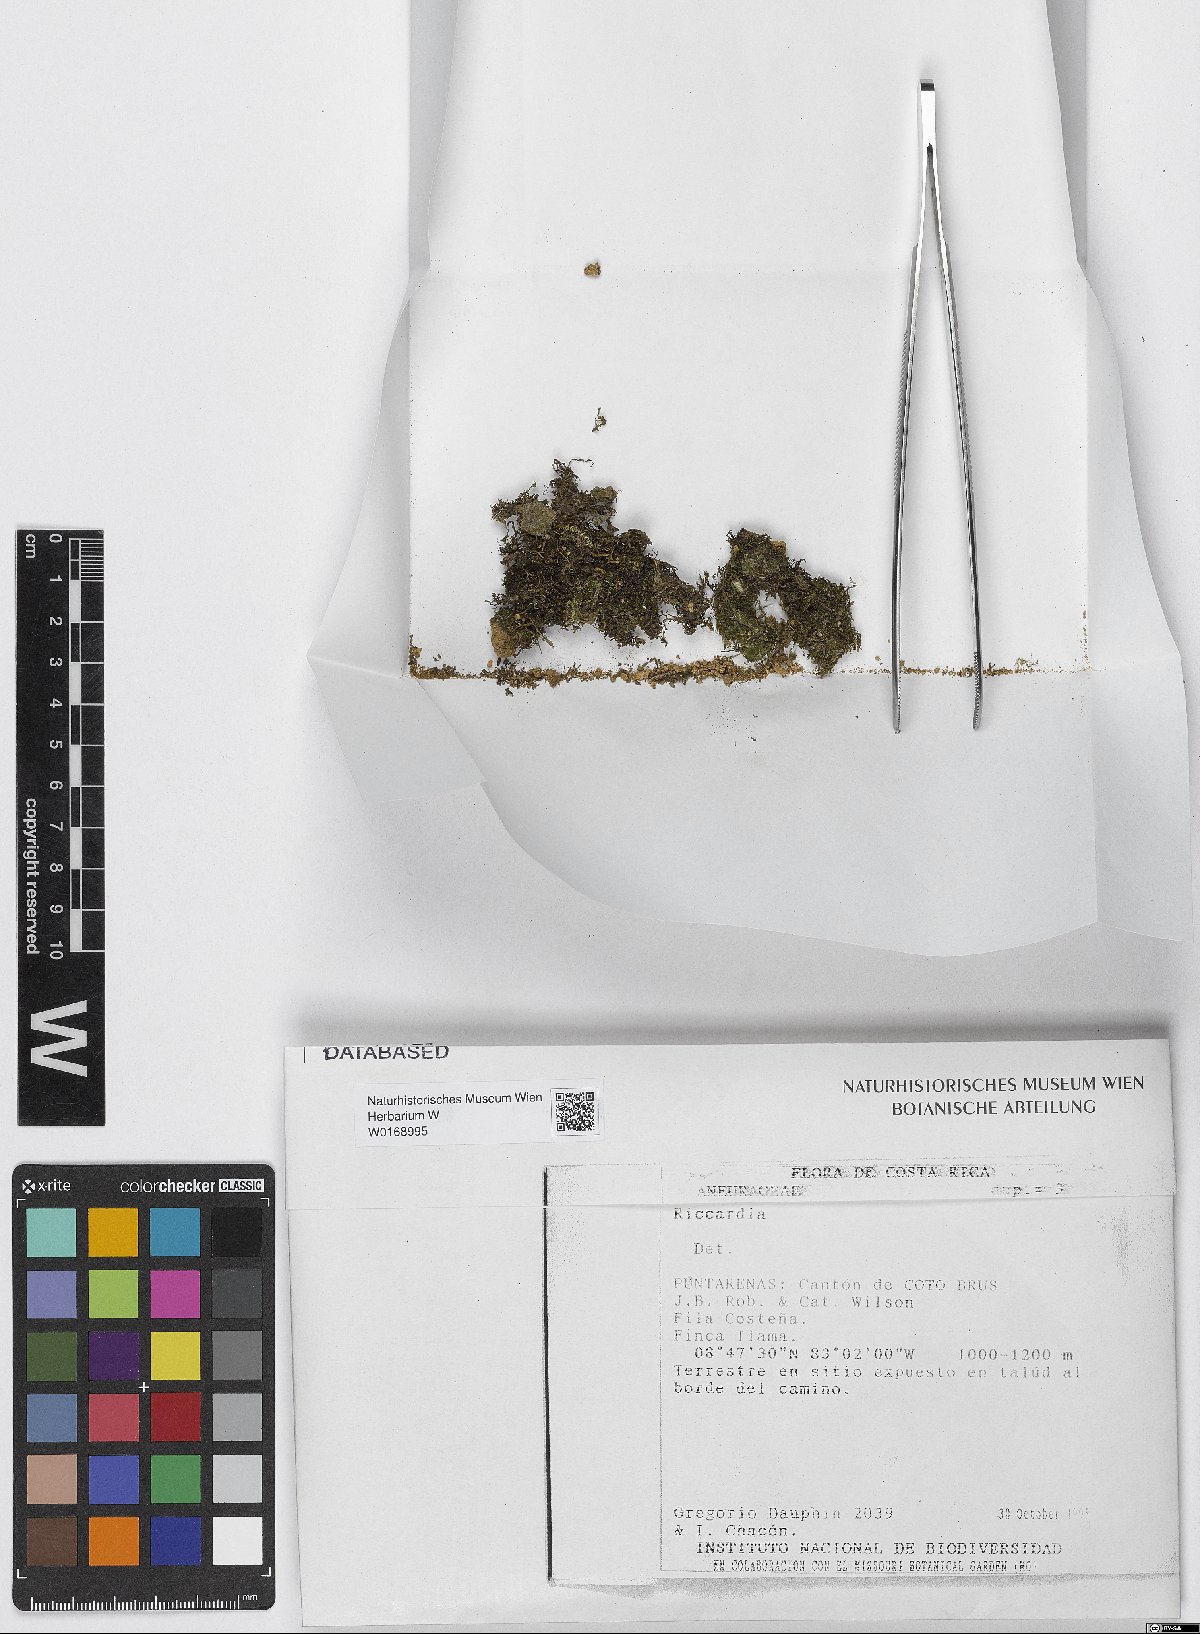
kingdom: Plantae
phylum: Marchantiophyta
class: Jungermanniopsida
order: Metzgeriales
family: Aneuraceae
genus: Riccardia
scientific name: Riccardia
